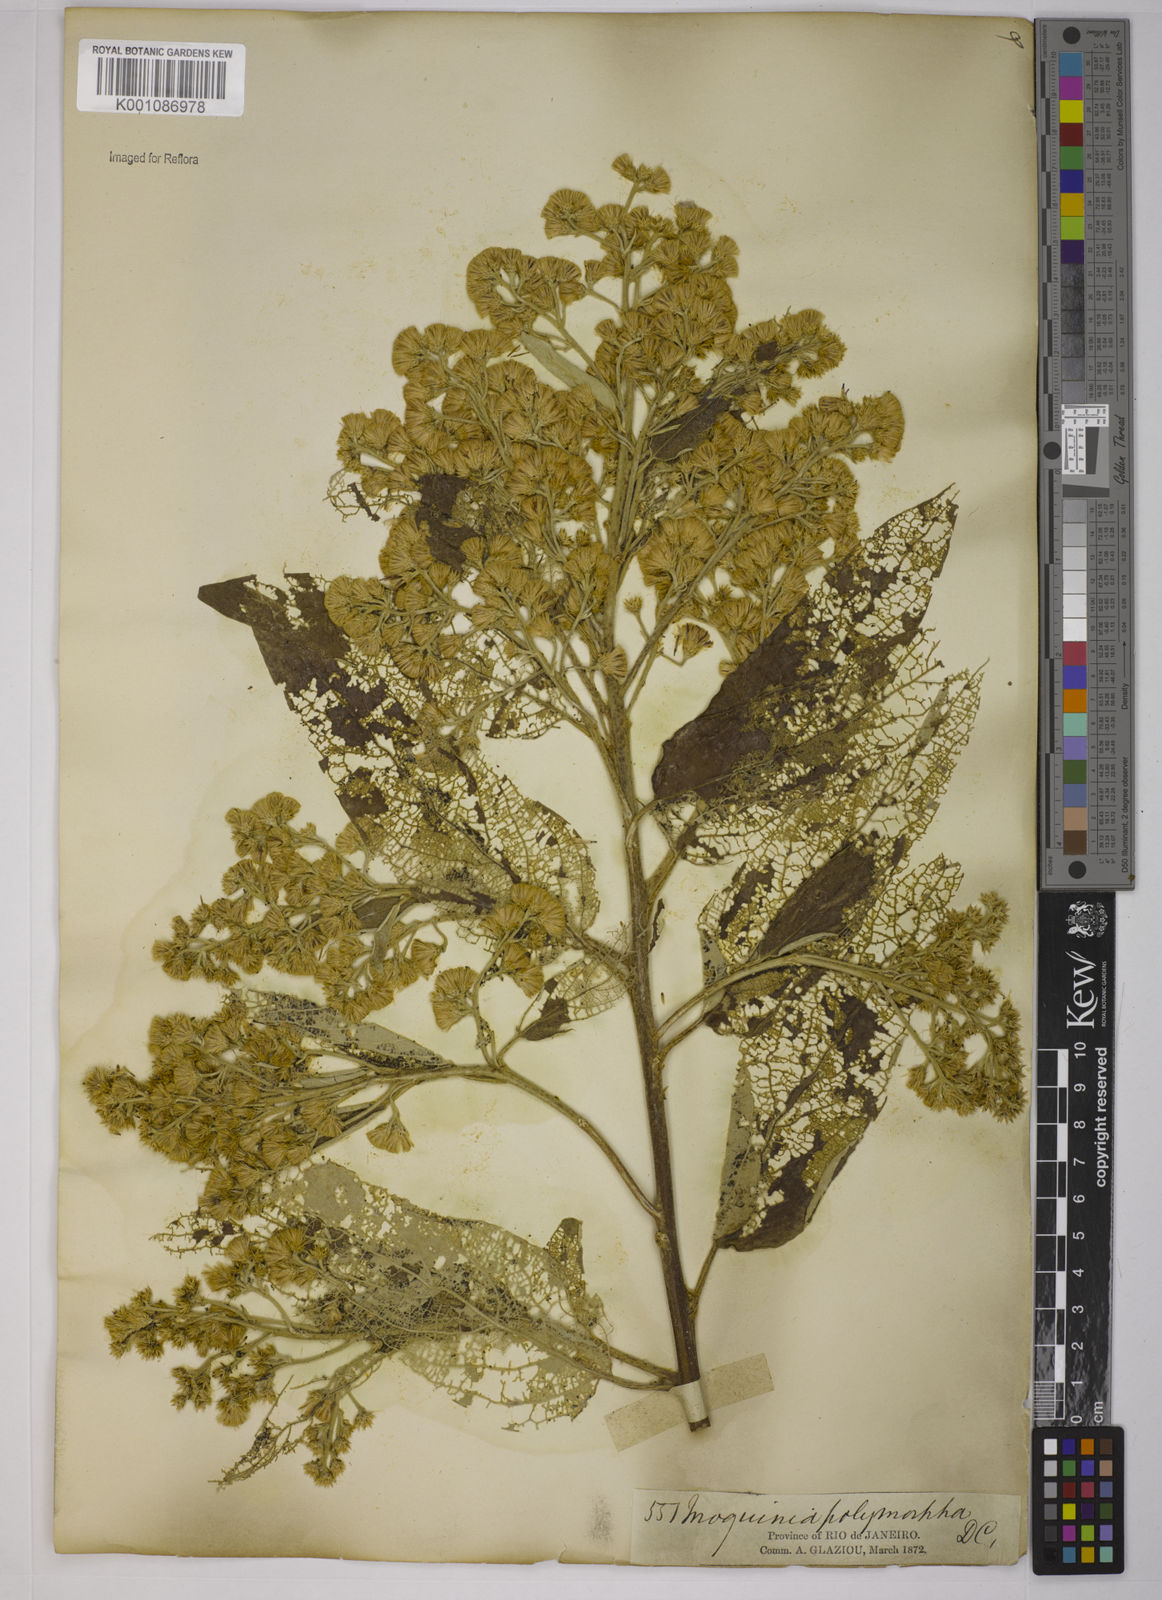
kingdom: Plantae
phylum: Tracheophyta
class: Magnoliopsida
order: Asterales
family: Asteraceae
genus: Moquiniastrum
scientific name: Moquiniastrum polymorphum
